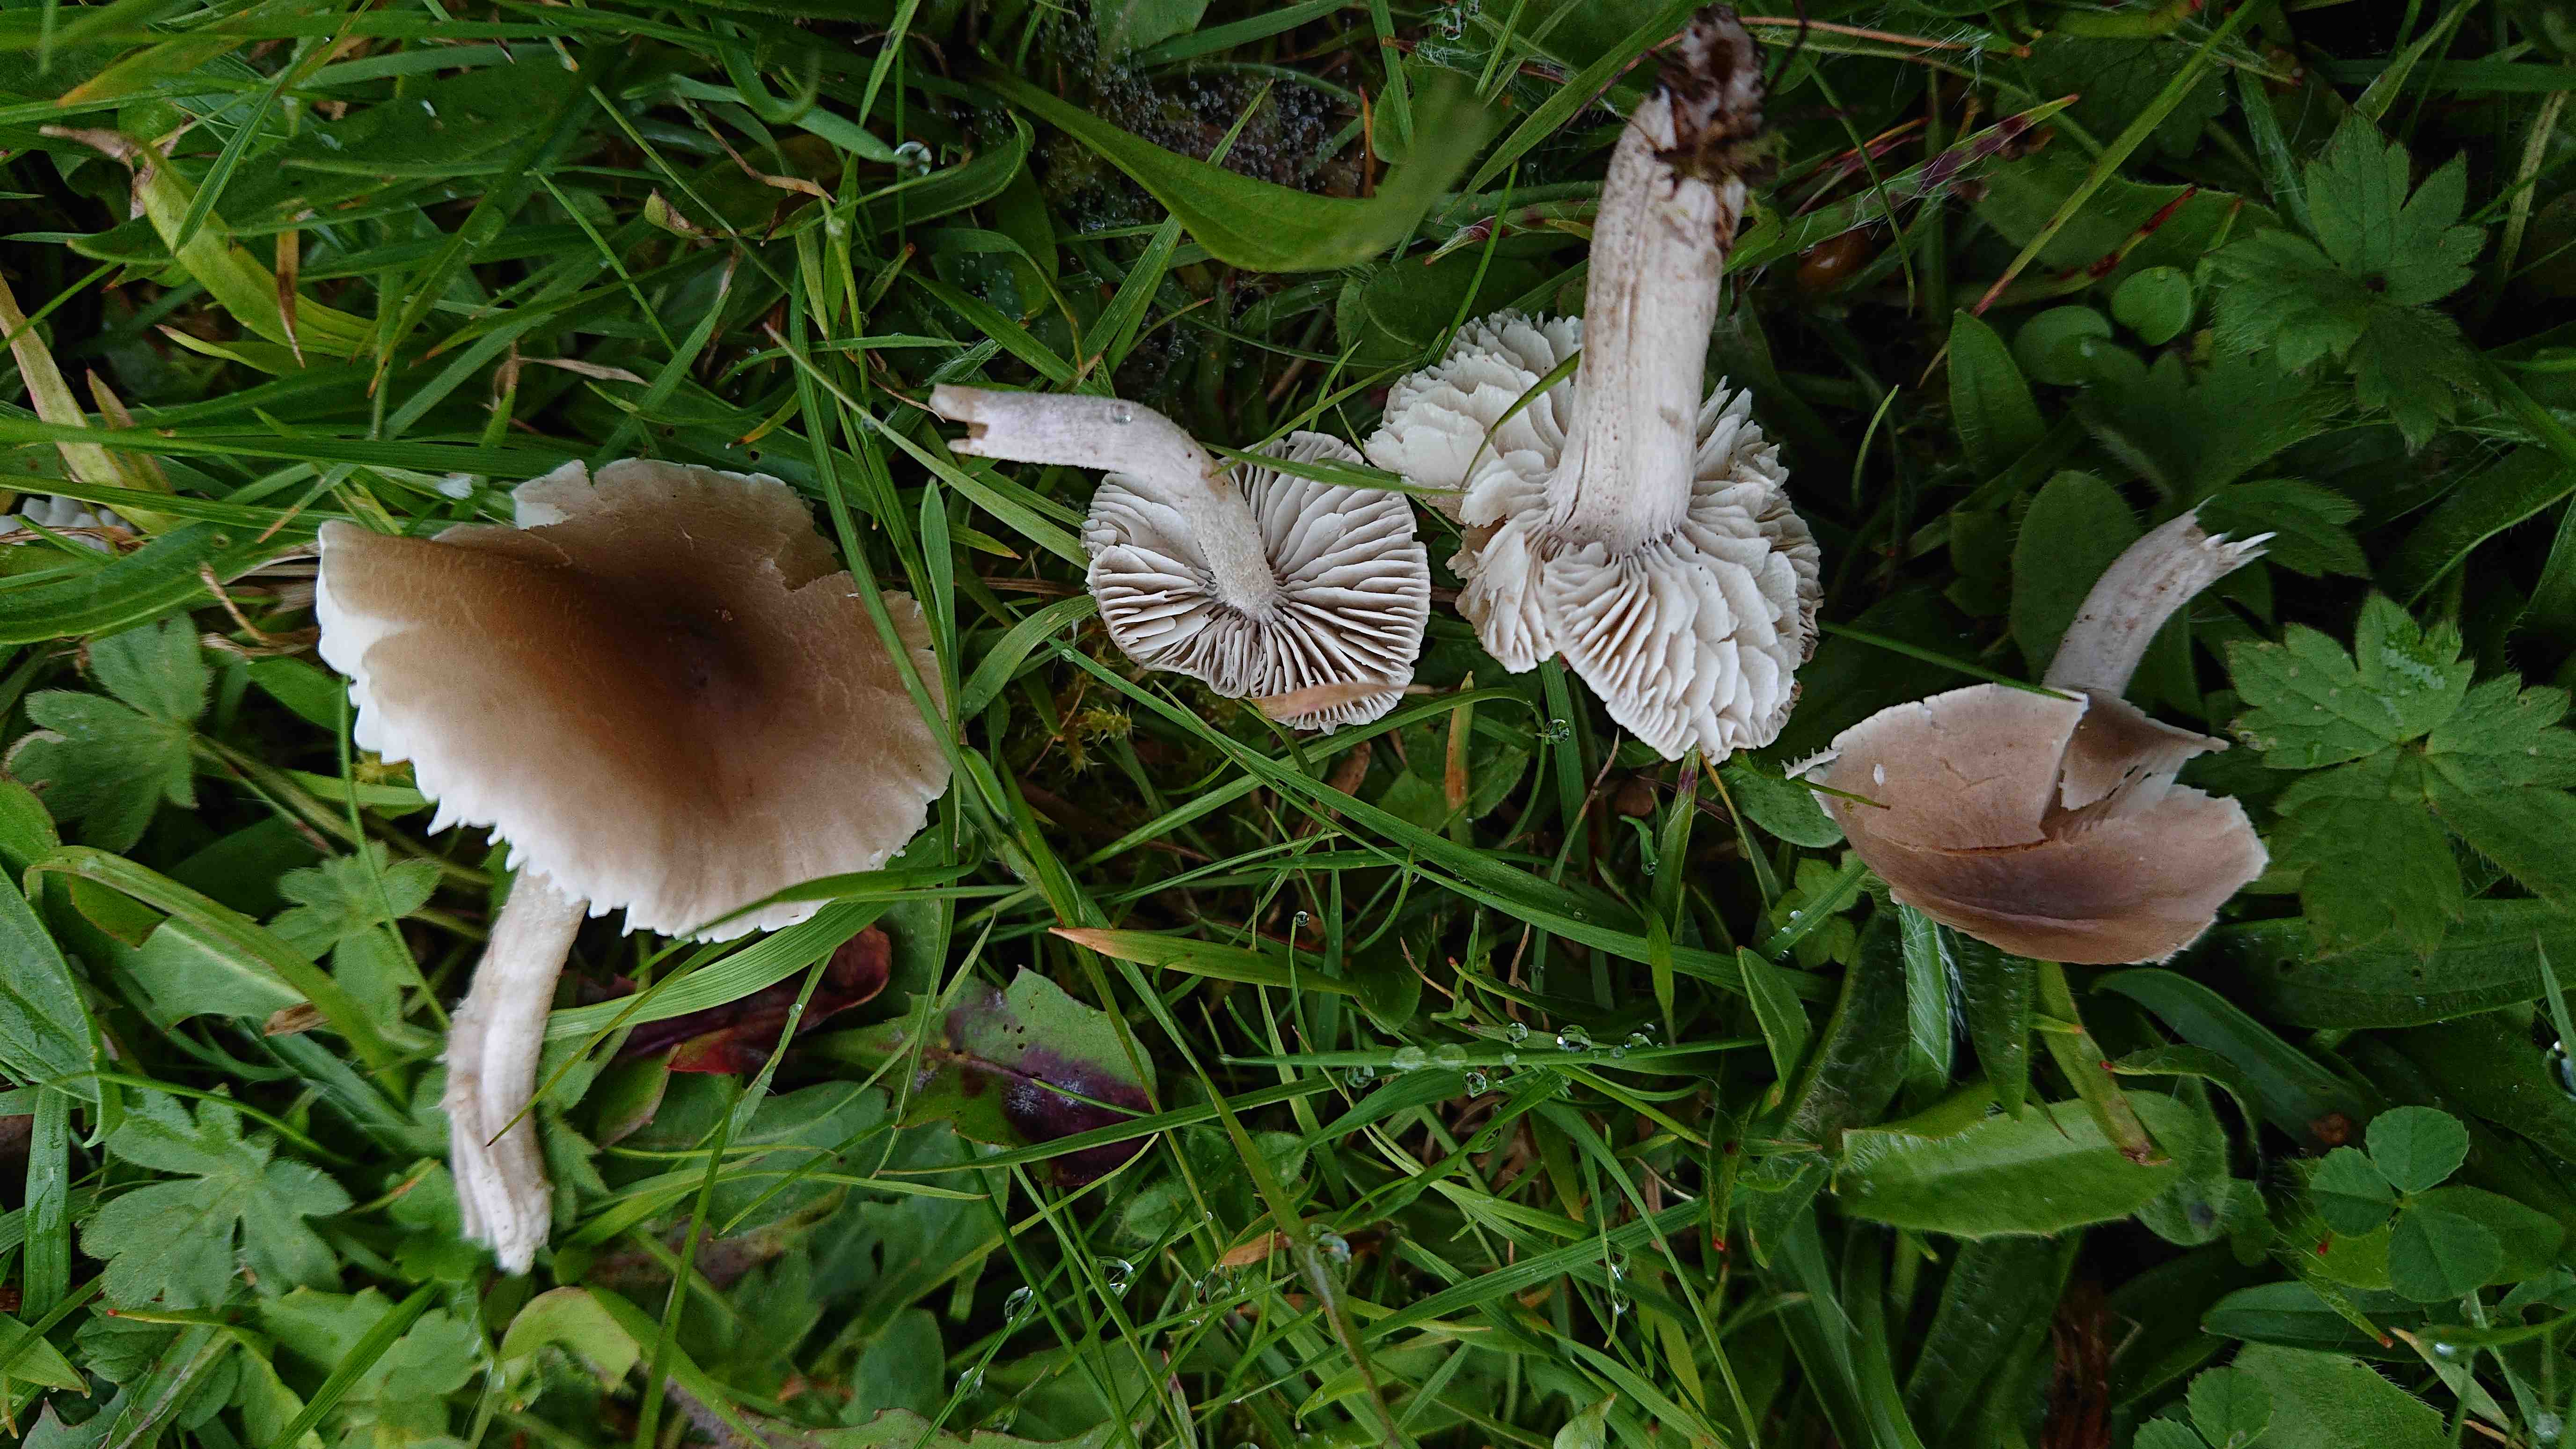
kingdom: Fungi
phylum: Basidiomycota
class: Agaricomycetes
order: Agaricales
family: Tricholomataceae
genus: Dermoloma
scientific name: Dermoloma cuneifolium
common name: eng-nonnehat
